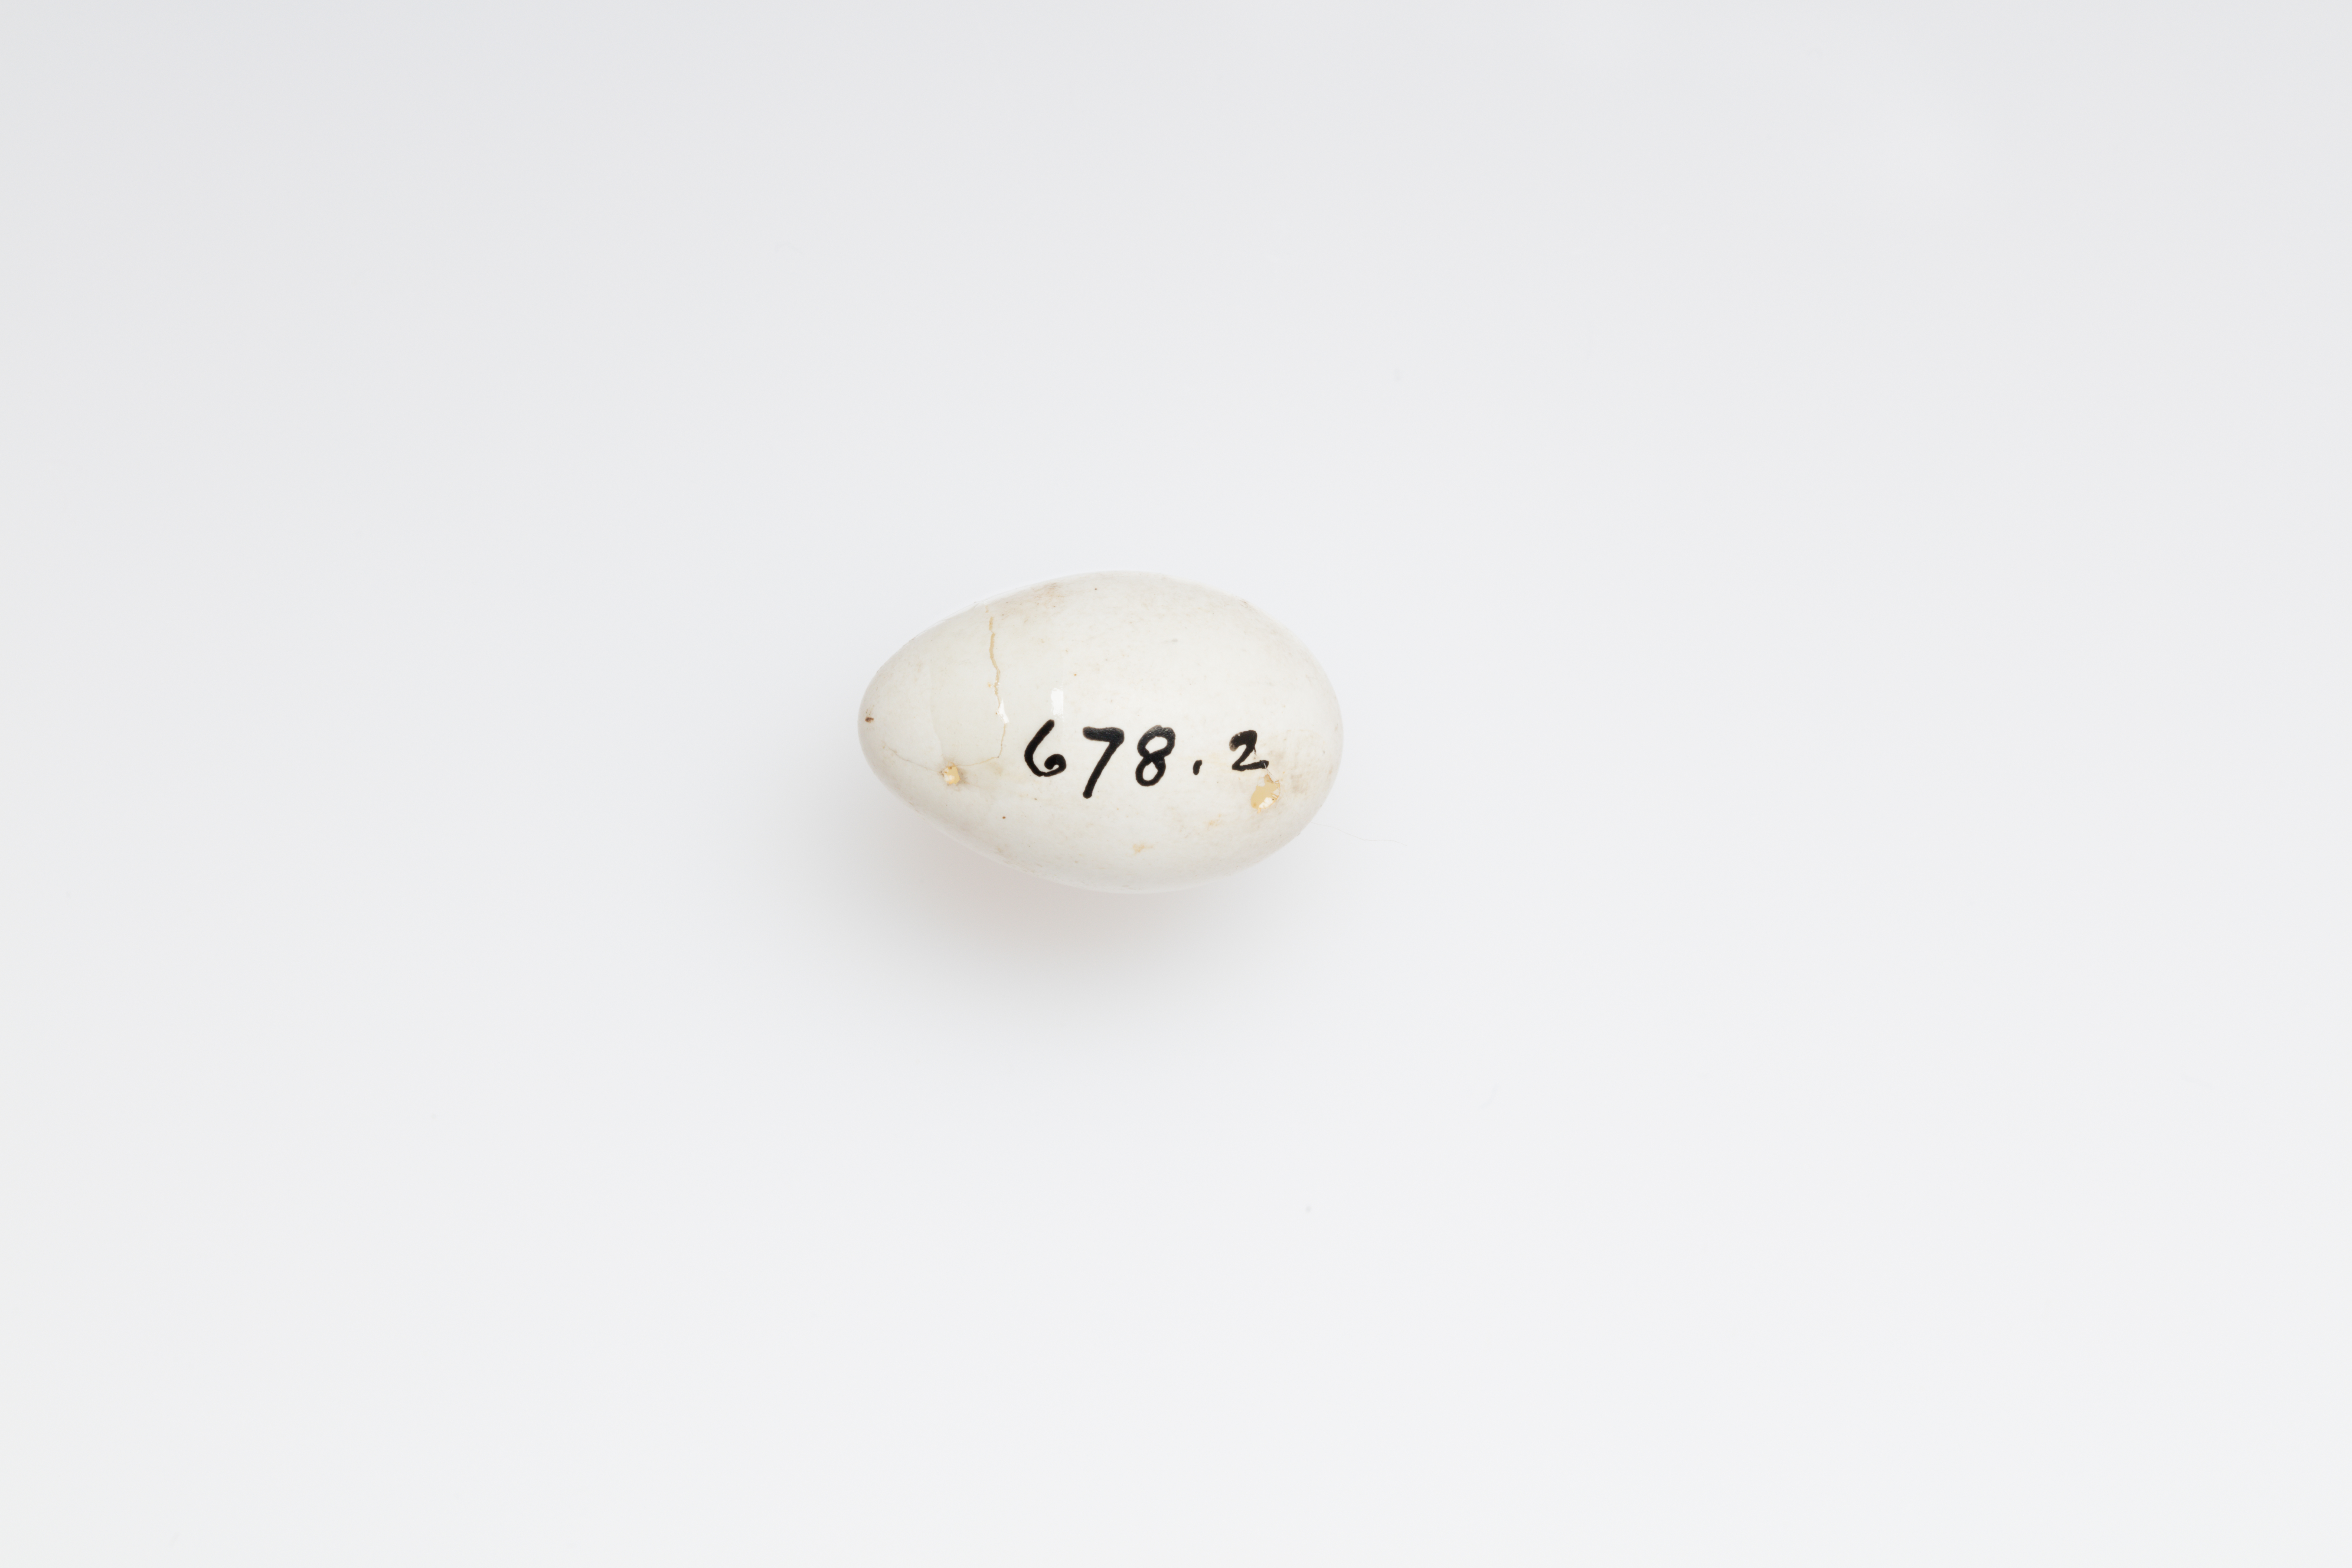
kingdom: Animalia
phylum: Chordata
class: Aves
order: Passeriformes
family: Hirundinidae
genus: Delichon
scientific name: Delichon urbicum
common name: Common house martin
